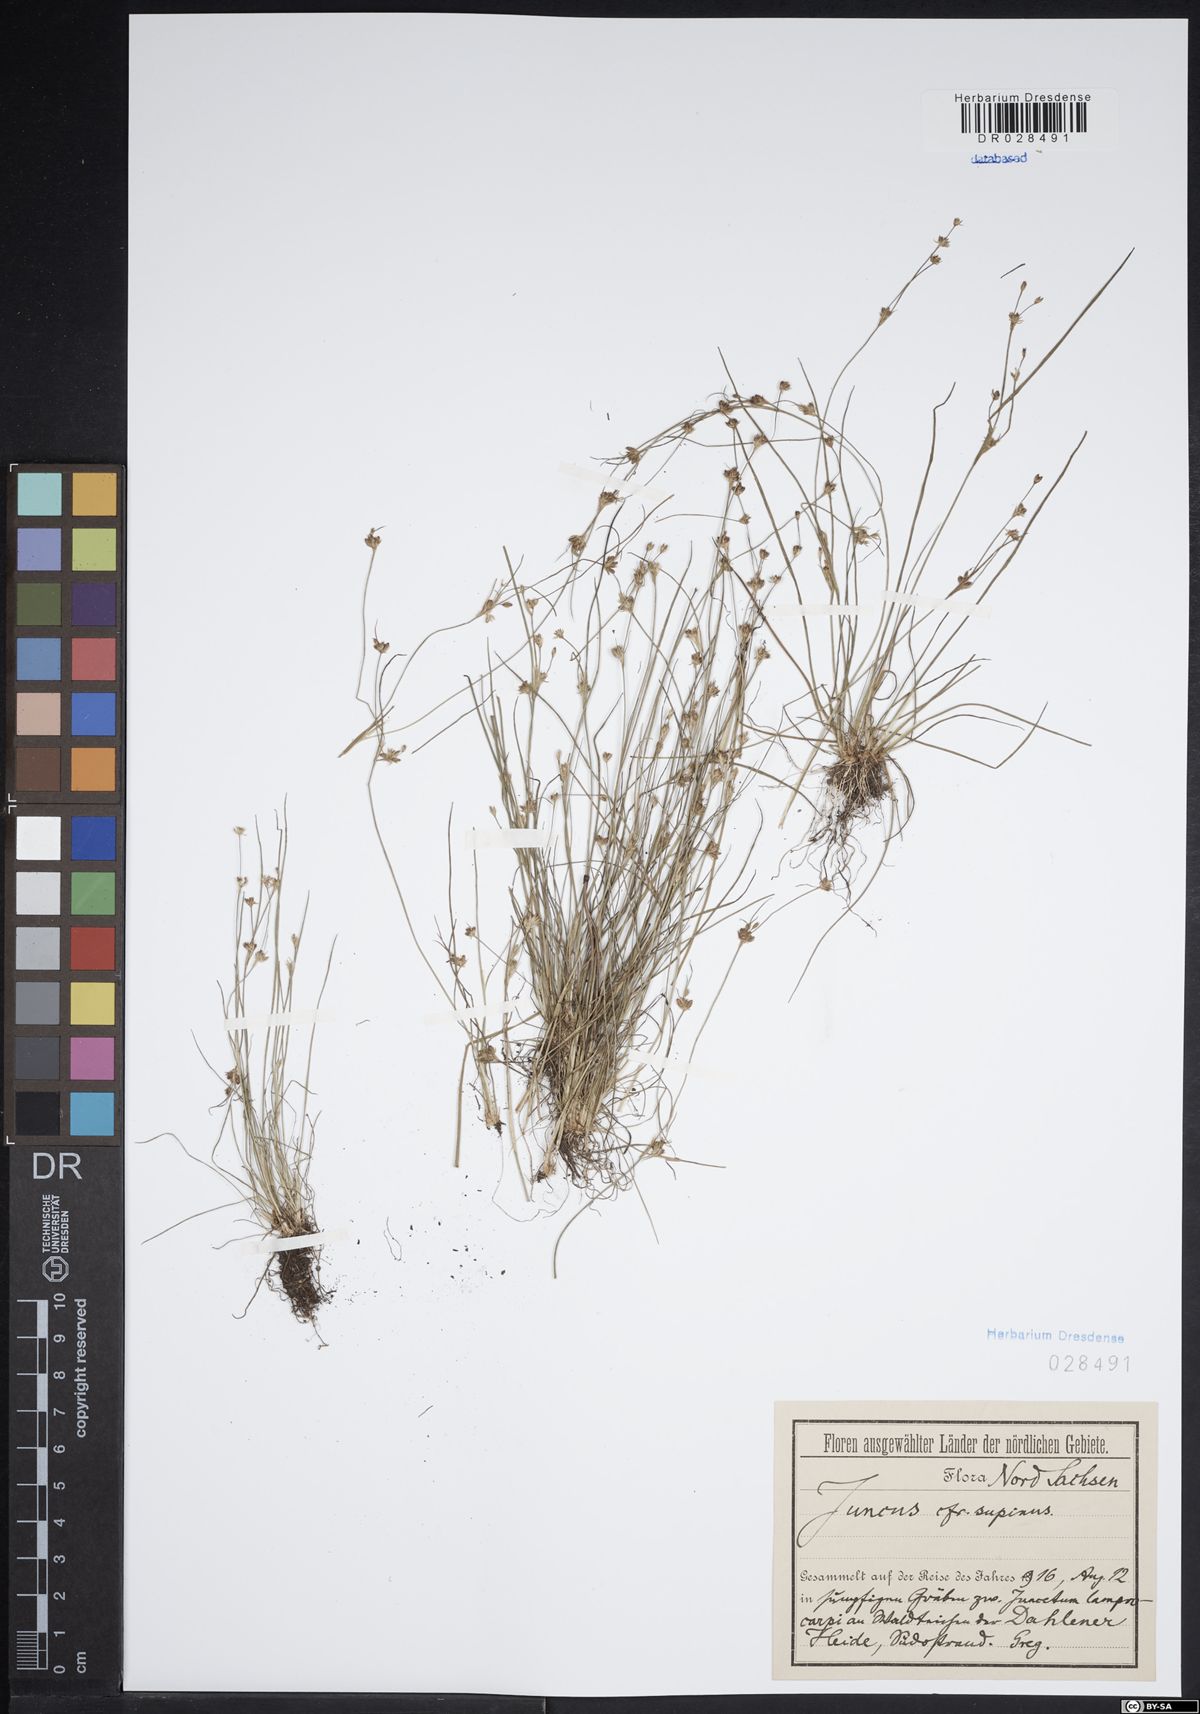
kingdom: Plantae
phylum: Tracheophyta
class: Liliopsida
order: Poales
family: Juncaceae
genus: Juncus
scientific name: Juncus bulbosus
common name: Bulbous rush
